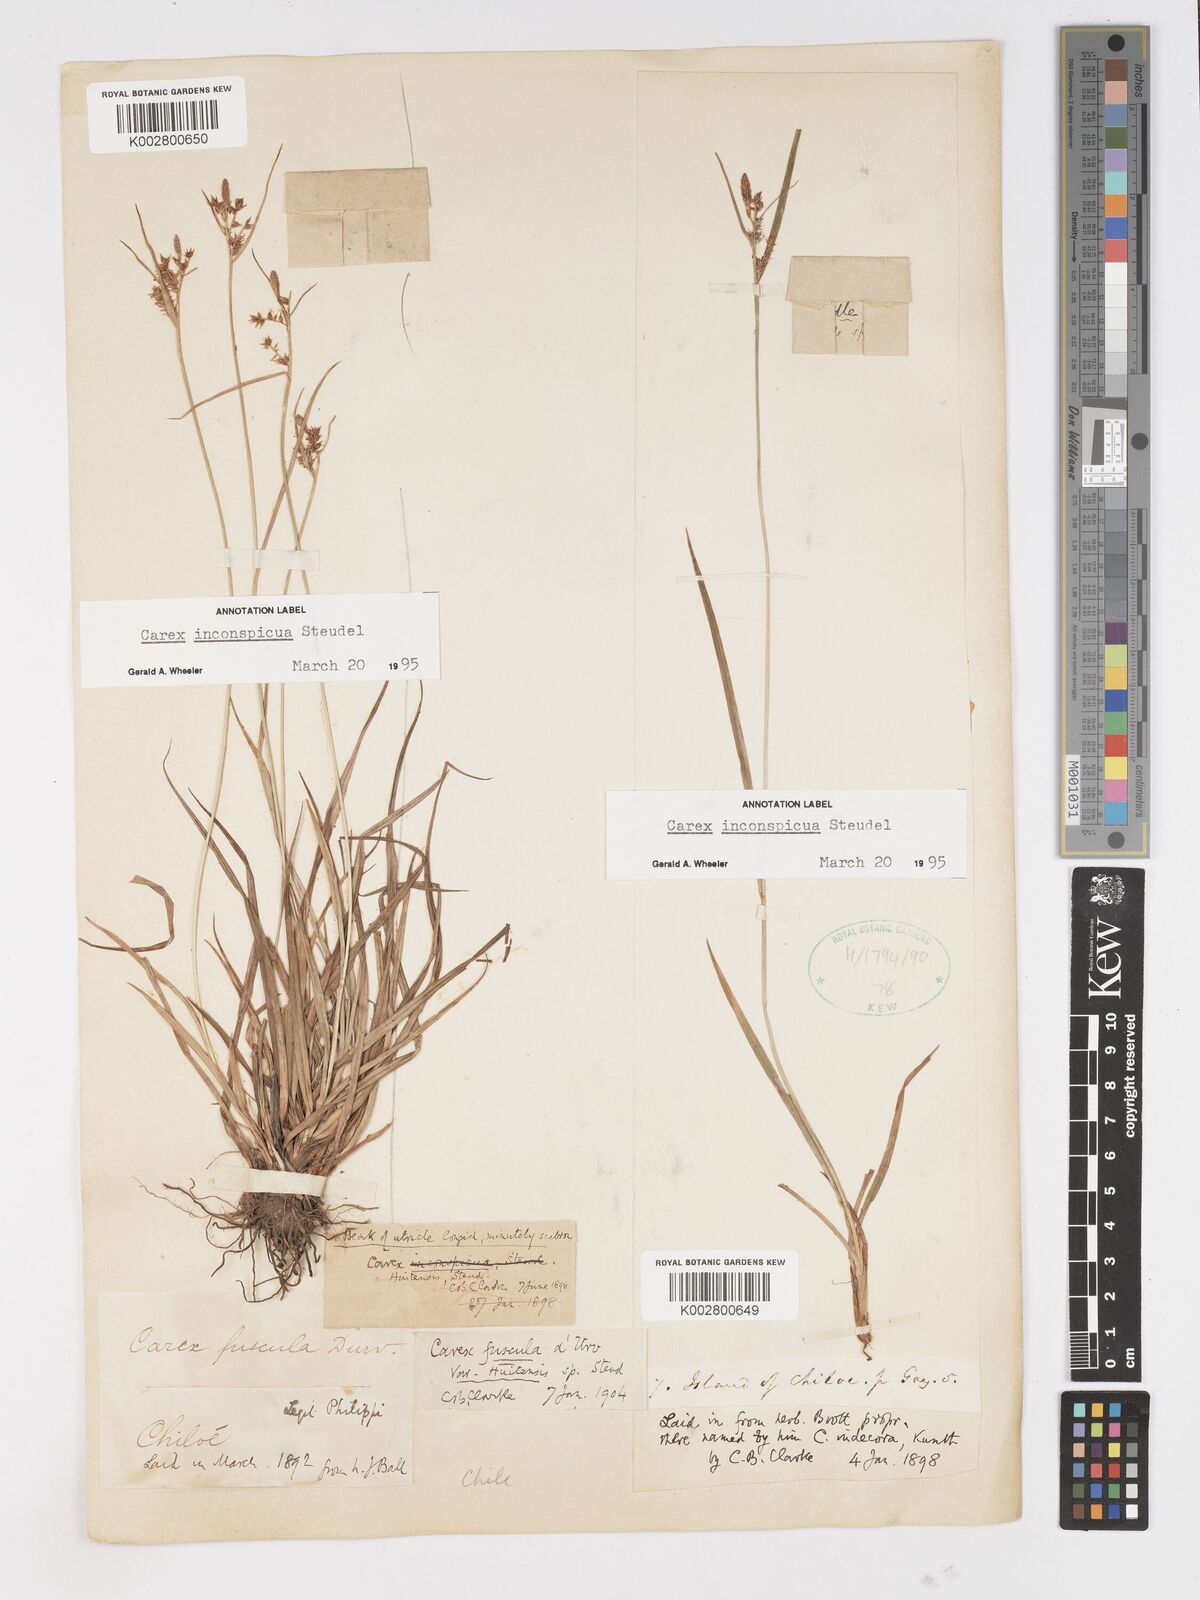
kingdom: Plantae
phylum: Tracheophyta
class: Liliopsida
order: Poales
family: Cyperaceae
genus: Carex
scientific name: Carex fuscula
